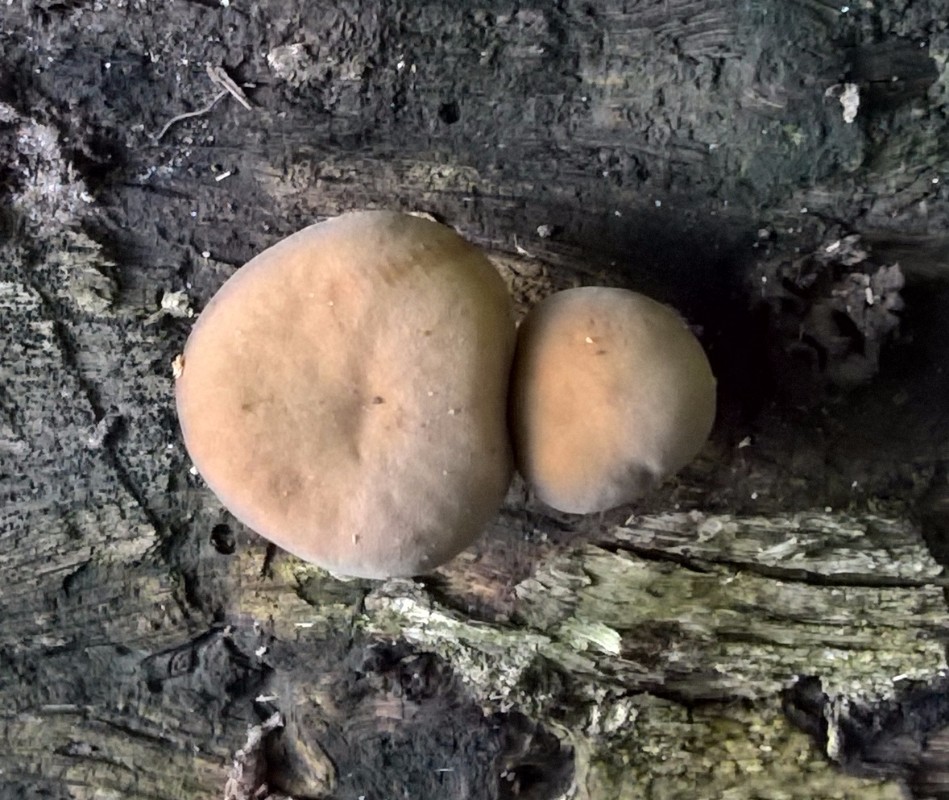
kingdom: Fungi
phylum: Basidiomycota
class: Agaricomycetes
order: Agaricales
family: Crepidotaceae
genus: Simocybe
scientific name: Simocybe sumptuosa
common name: stor skyggehat
